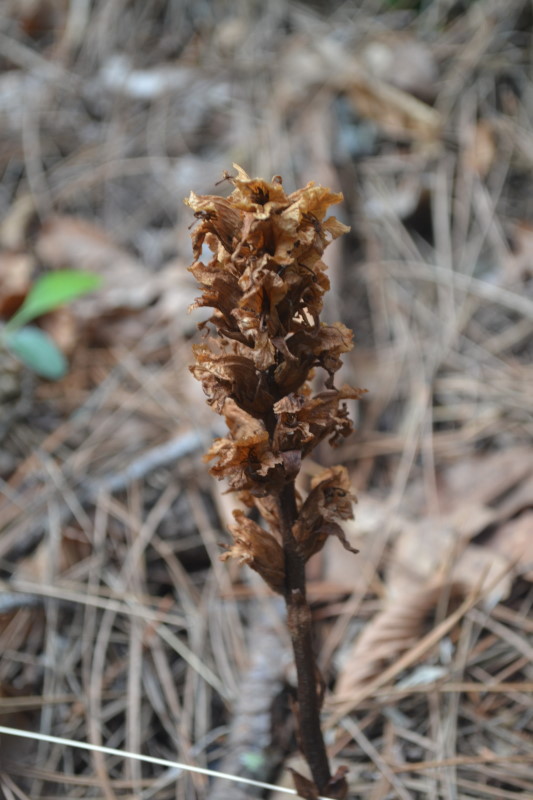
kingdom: Plantae
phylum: Tracheophyta
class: Magnoliopsida
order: Lamiales
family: Scrophulariaceae
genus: Orabanche
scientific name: Orabanche
